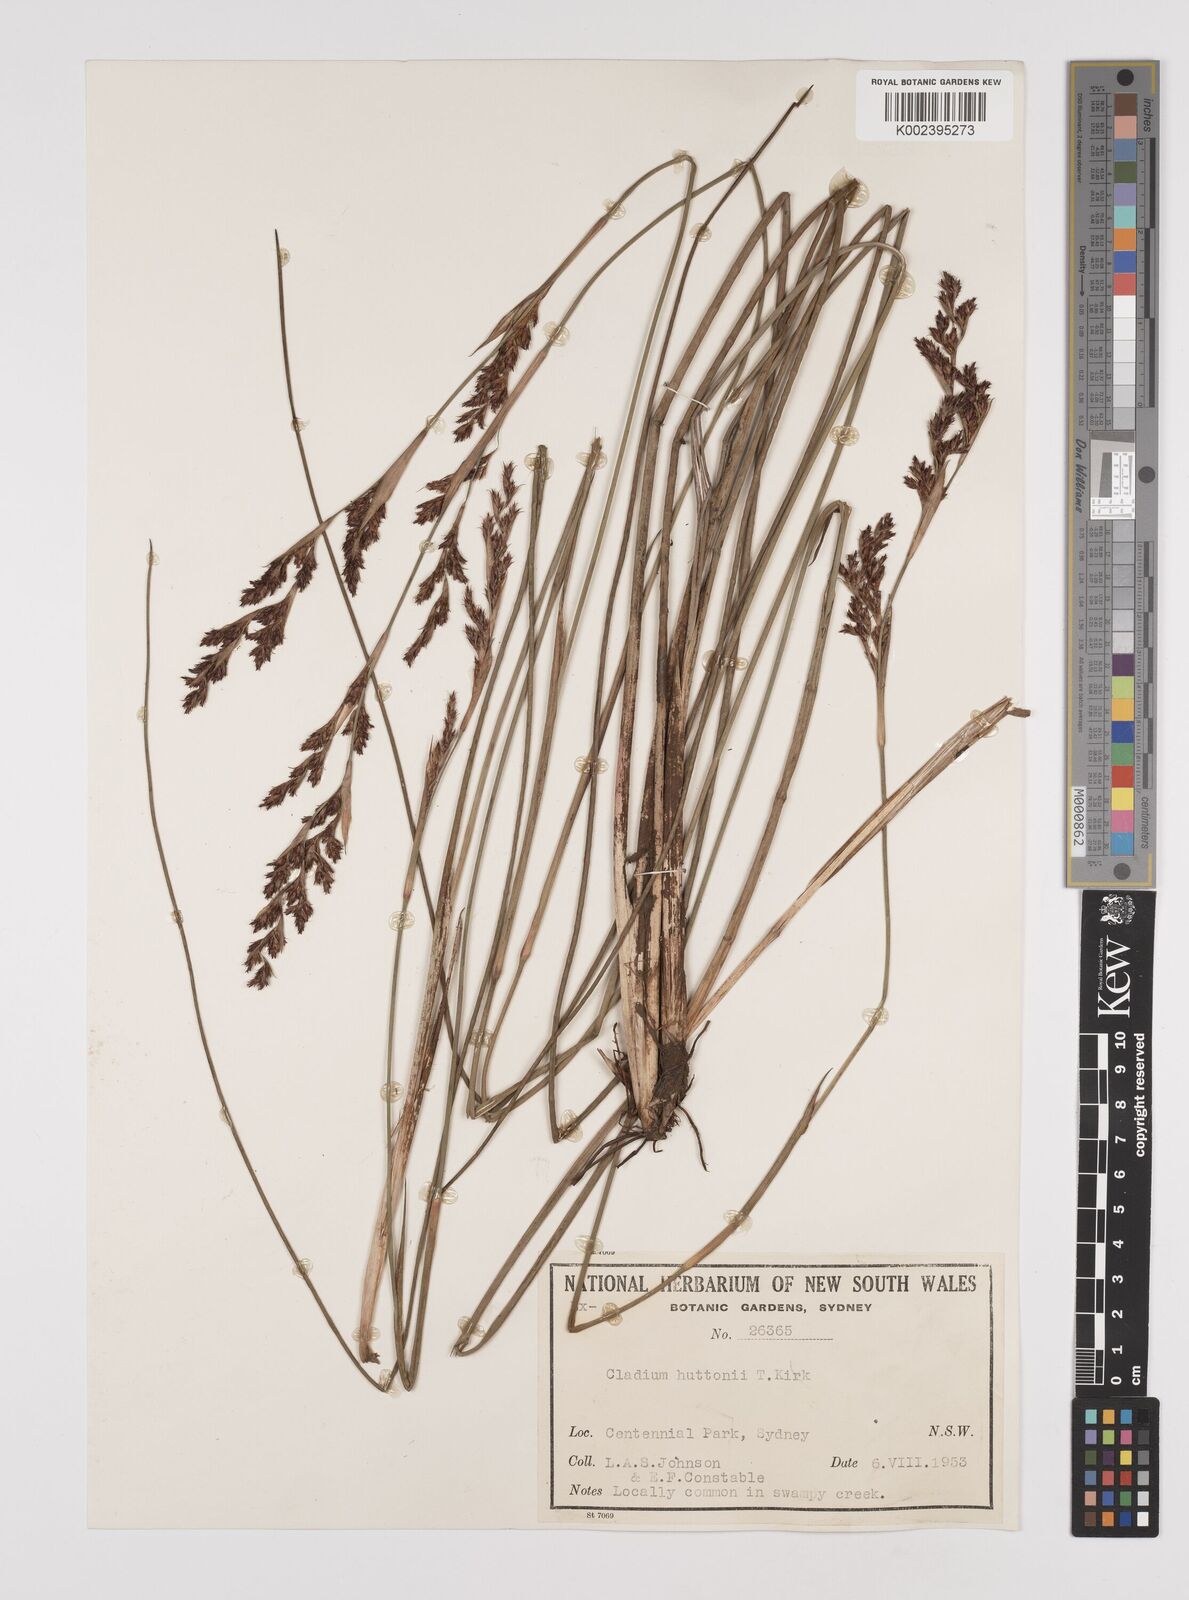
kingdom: Plantae
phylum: Tracheophyta
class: Liliopsida
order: Poales
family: Cyperaceae
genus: Machaerina
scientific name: Machaerina huttonii
